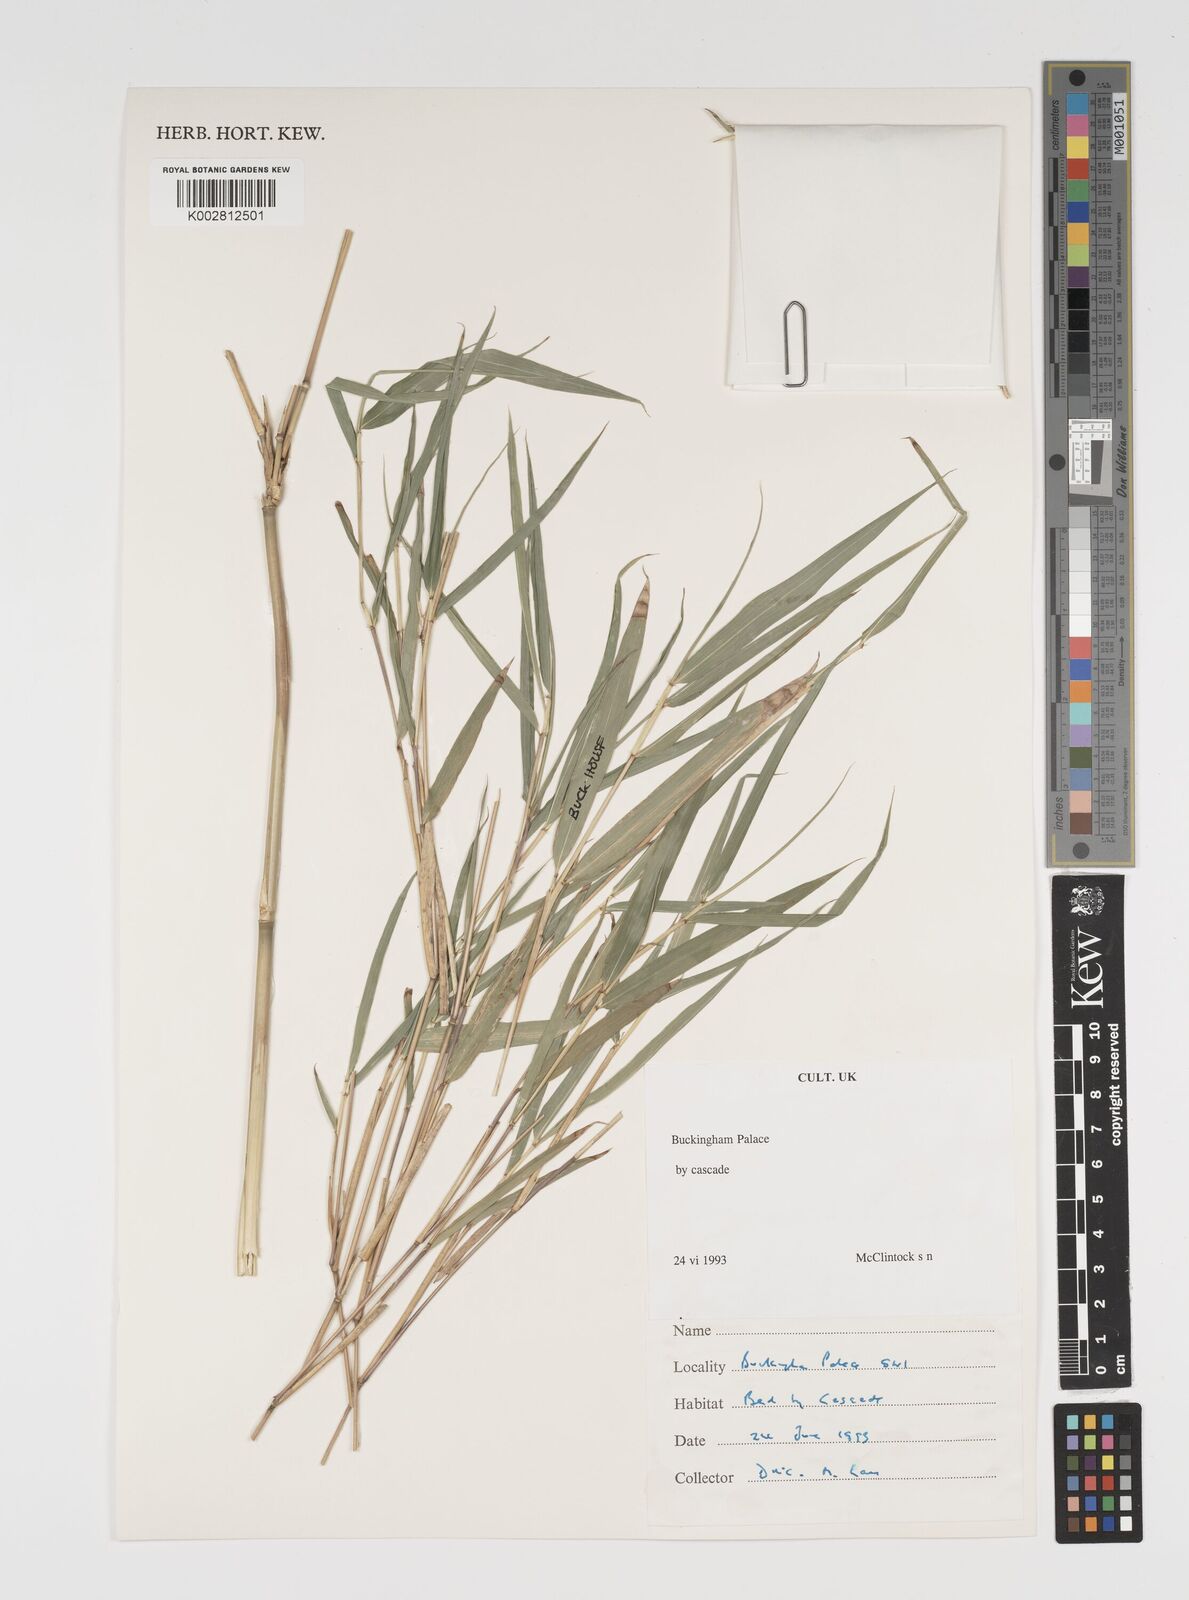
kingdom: Plantae
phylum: Tracheophyta
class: Liliopsida
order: Poales
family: Poaceae
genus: Arundinaria
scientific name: Arundinaria
